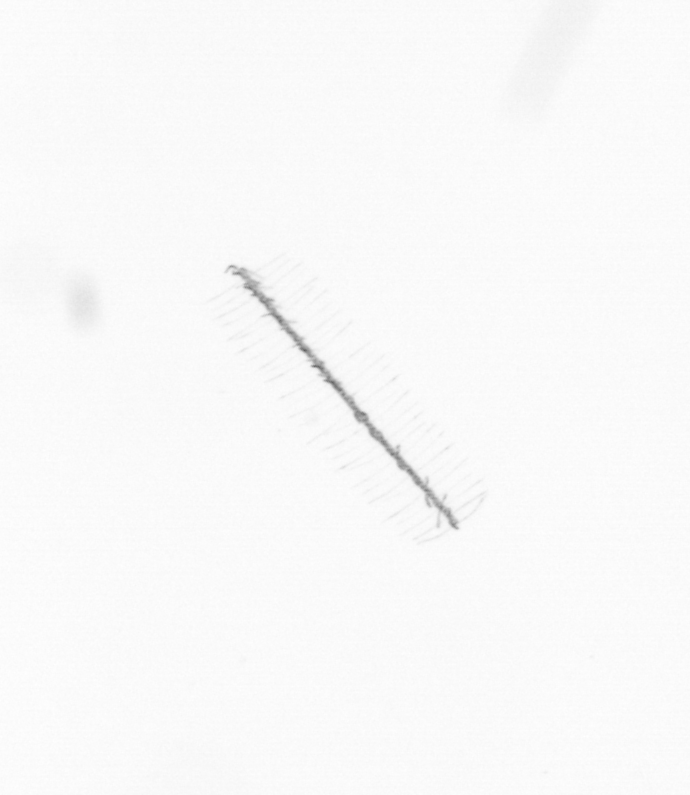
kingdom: Chromista
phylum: Ochrophyta
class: Bacillariophyceae
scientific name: Bacillariophyceae
